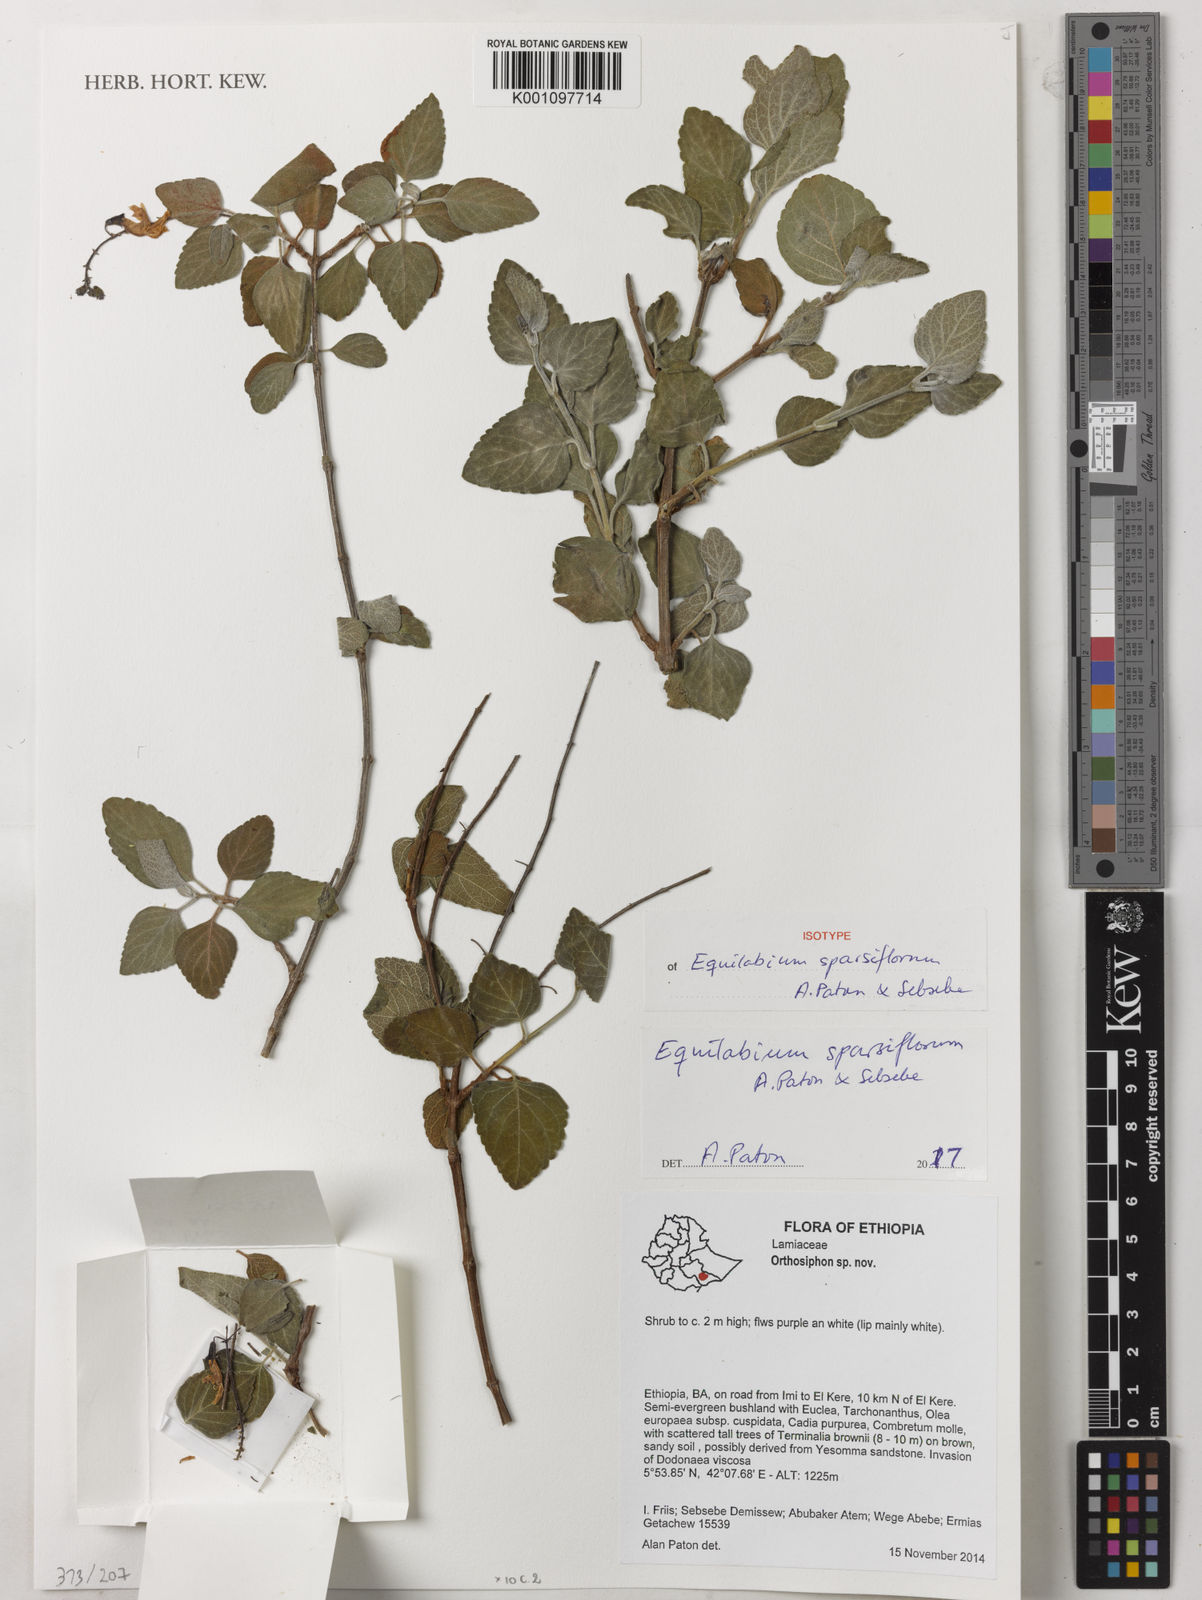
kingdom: Plantae
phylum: Tracheophyta
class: Magnoliopsida
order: Lamiales
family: Lamiaceae
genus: Equilabium
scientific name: Equilabium
